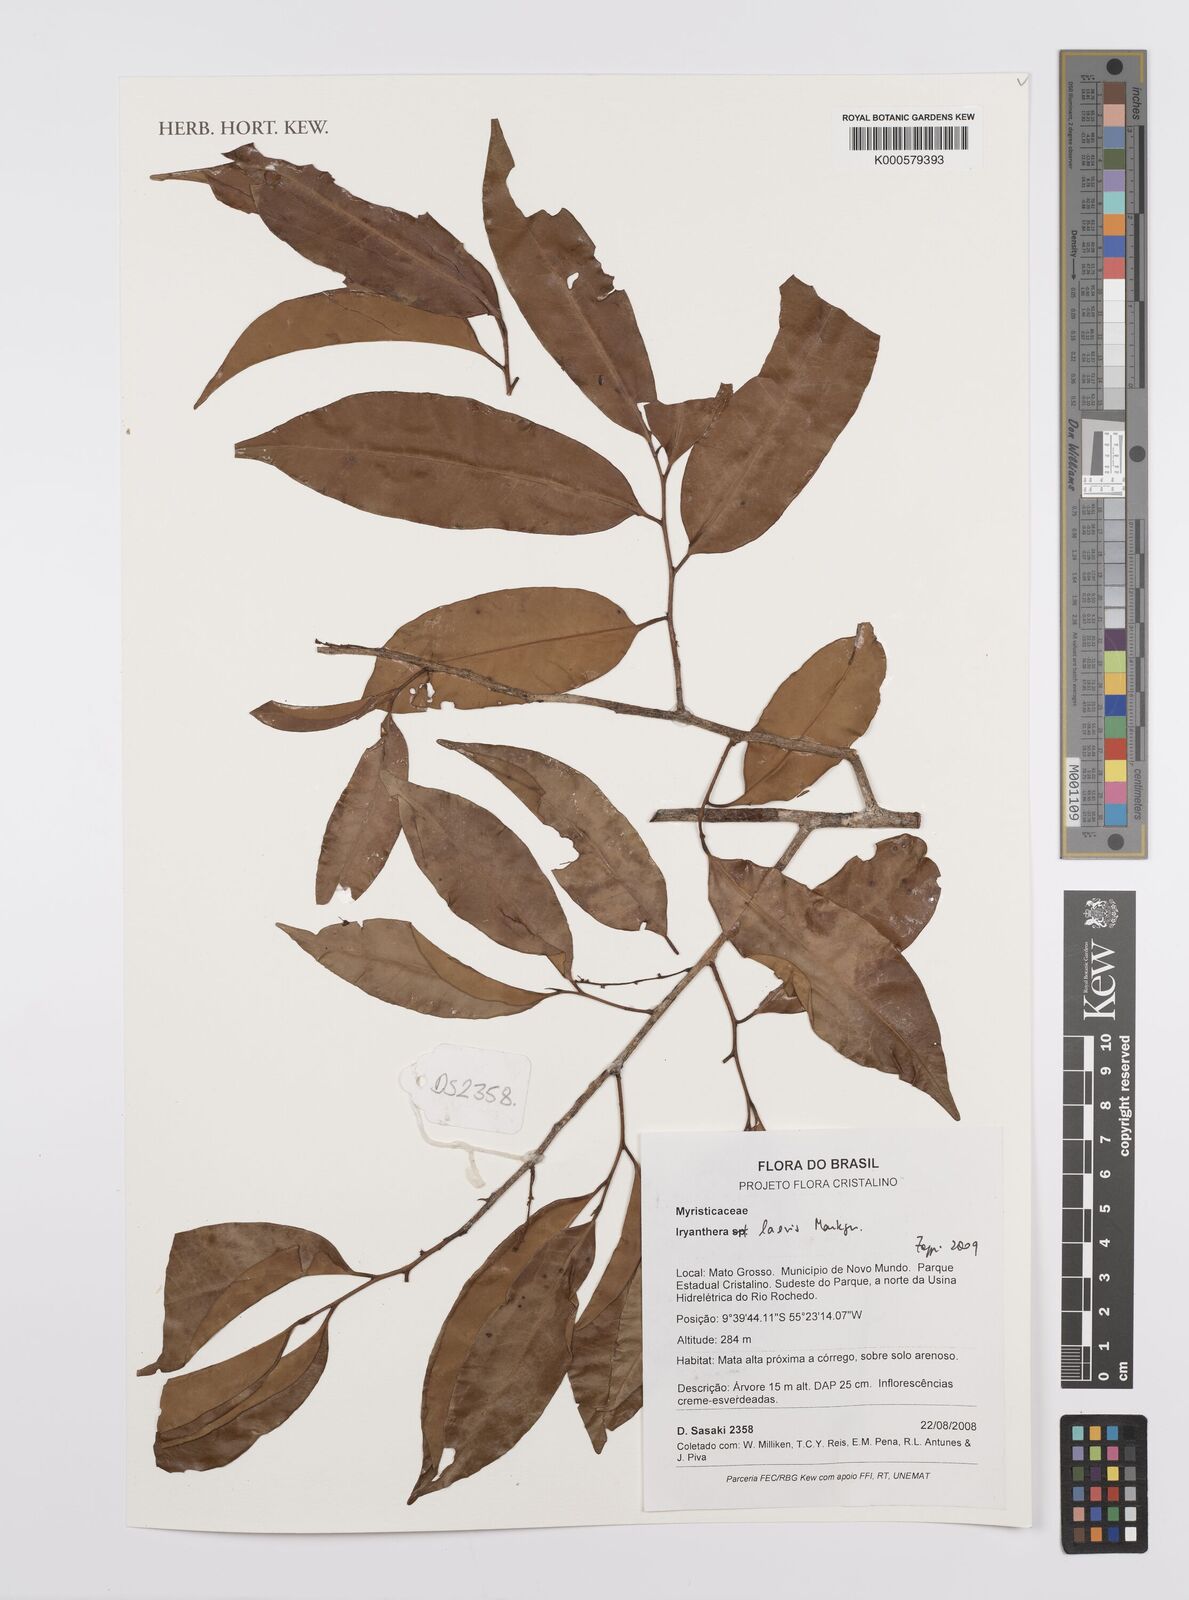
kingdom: Plantae
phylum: Tracheophyta
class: Magnoliopsida
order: Magnoliales
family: Myristicaceae
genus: Iryanthera
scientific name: Iryanthera laevis
